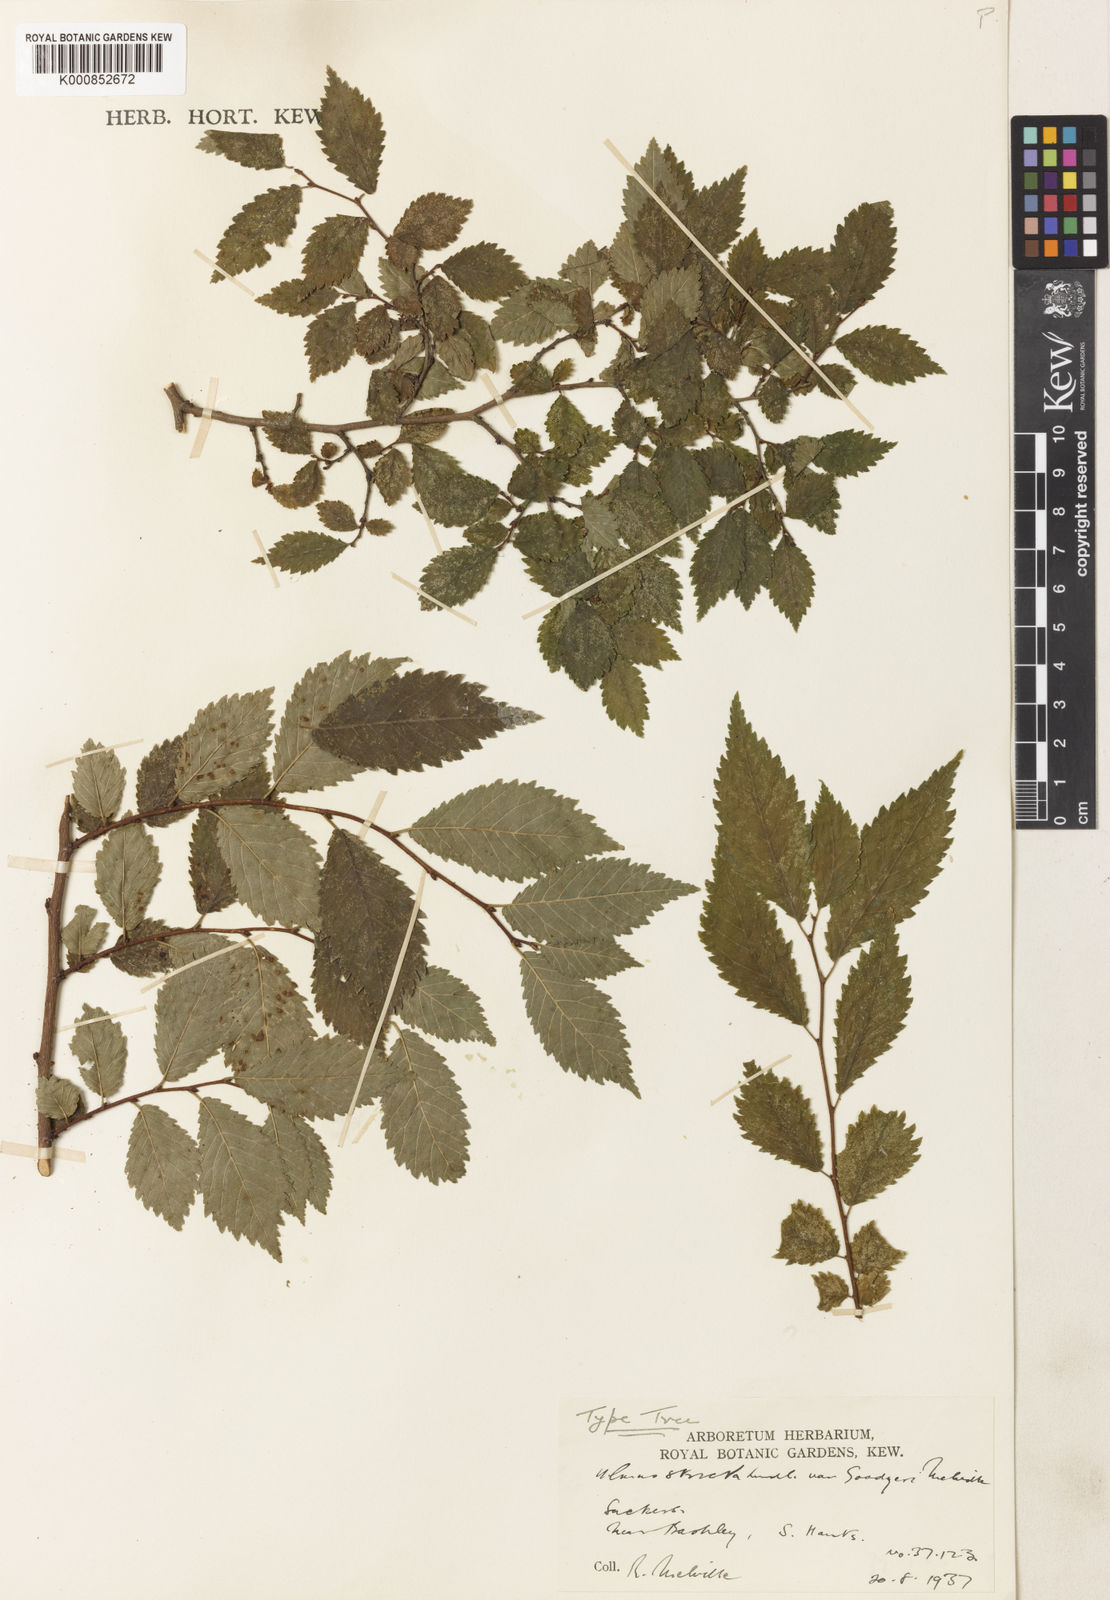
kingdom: Plantae
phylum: Tracheophyta
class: Magnoliopsida
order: Rosales
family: Ulmaceae
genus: Ulmus
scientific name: Ulmus
